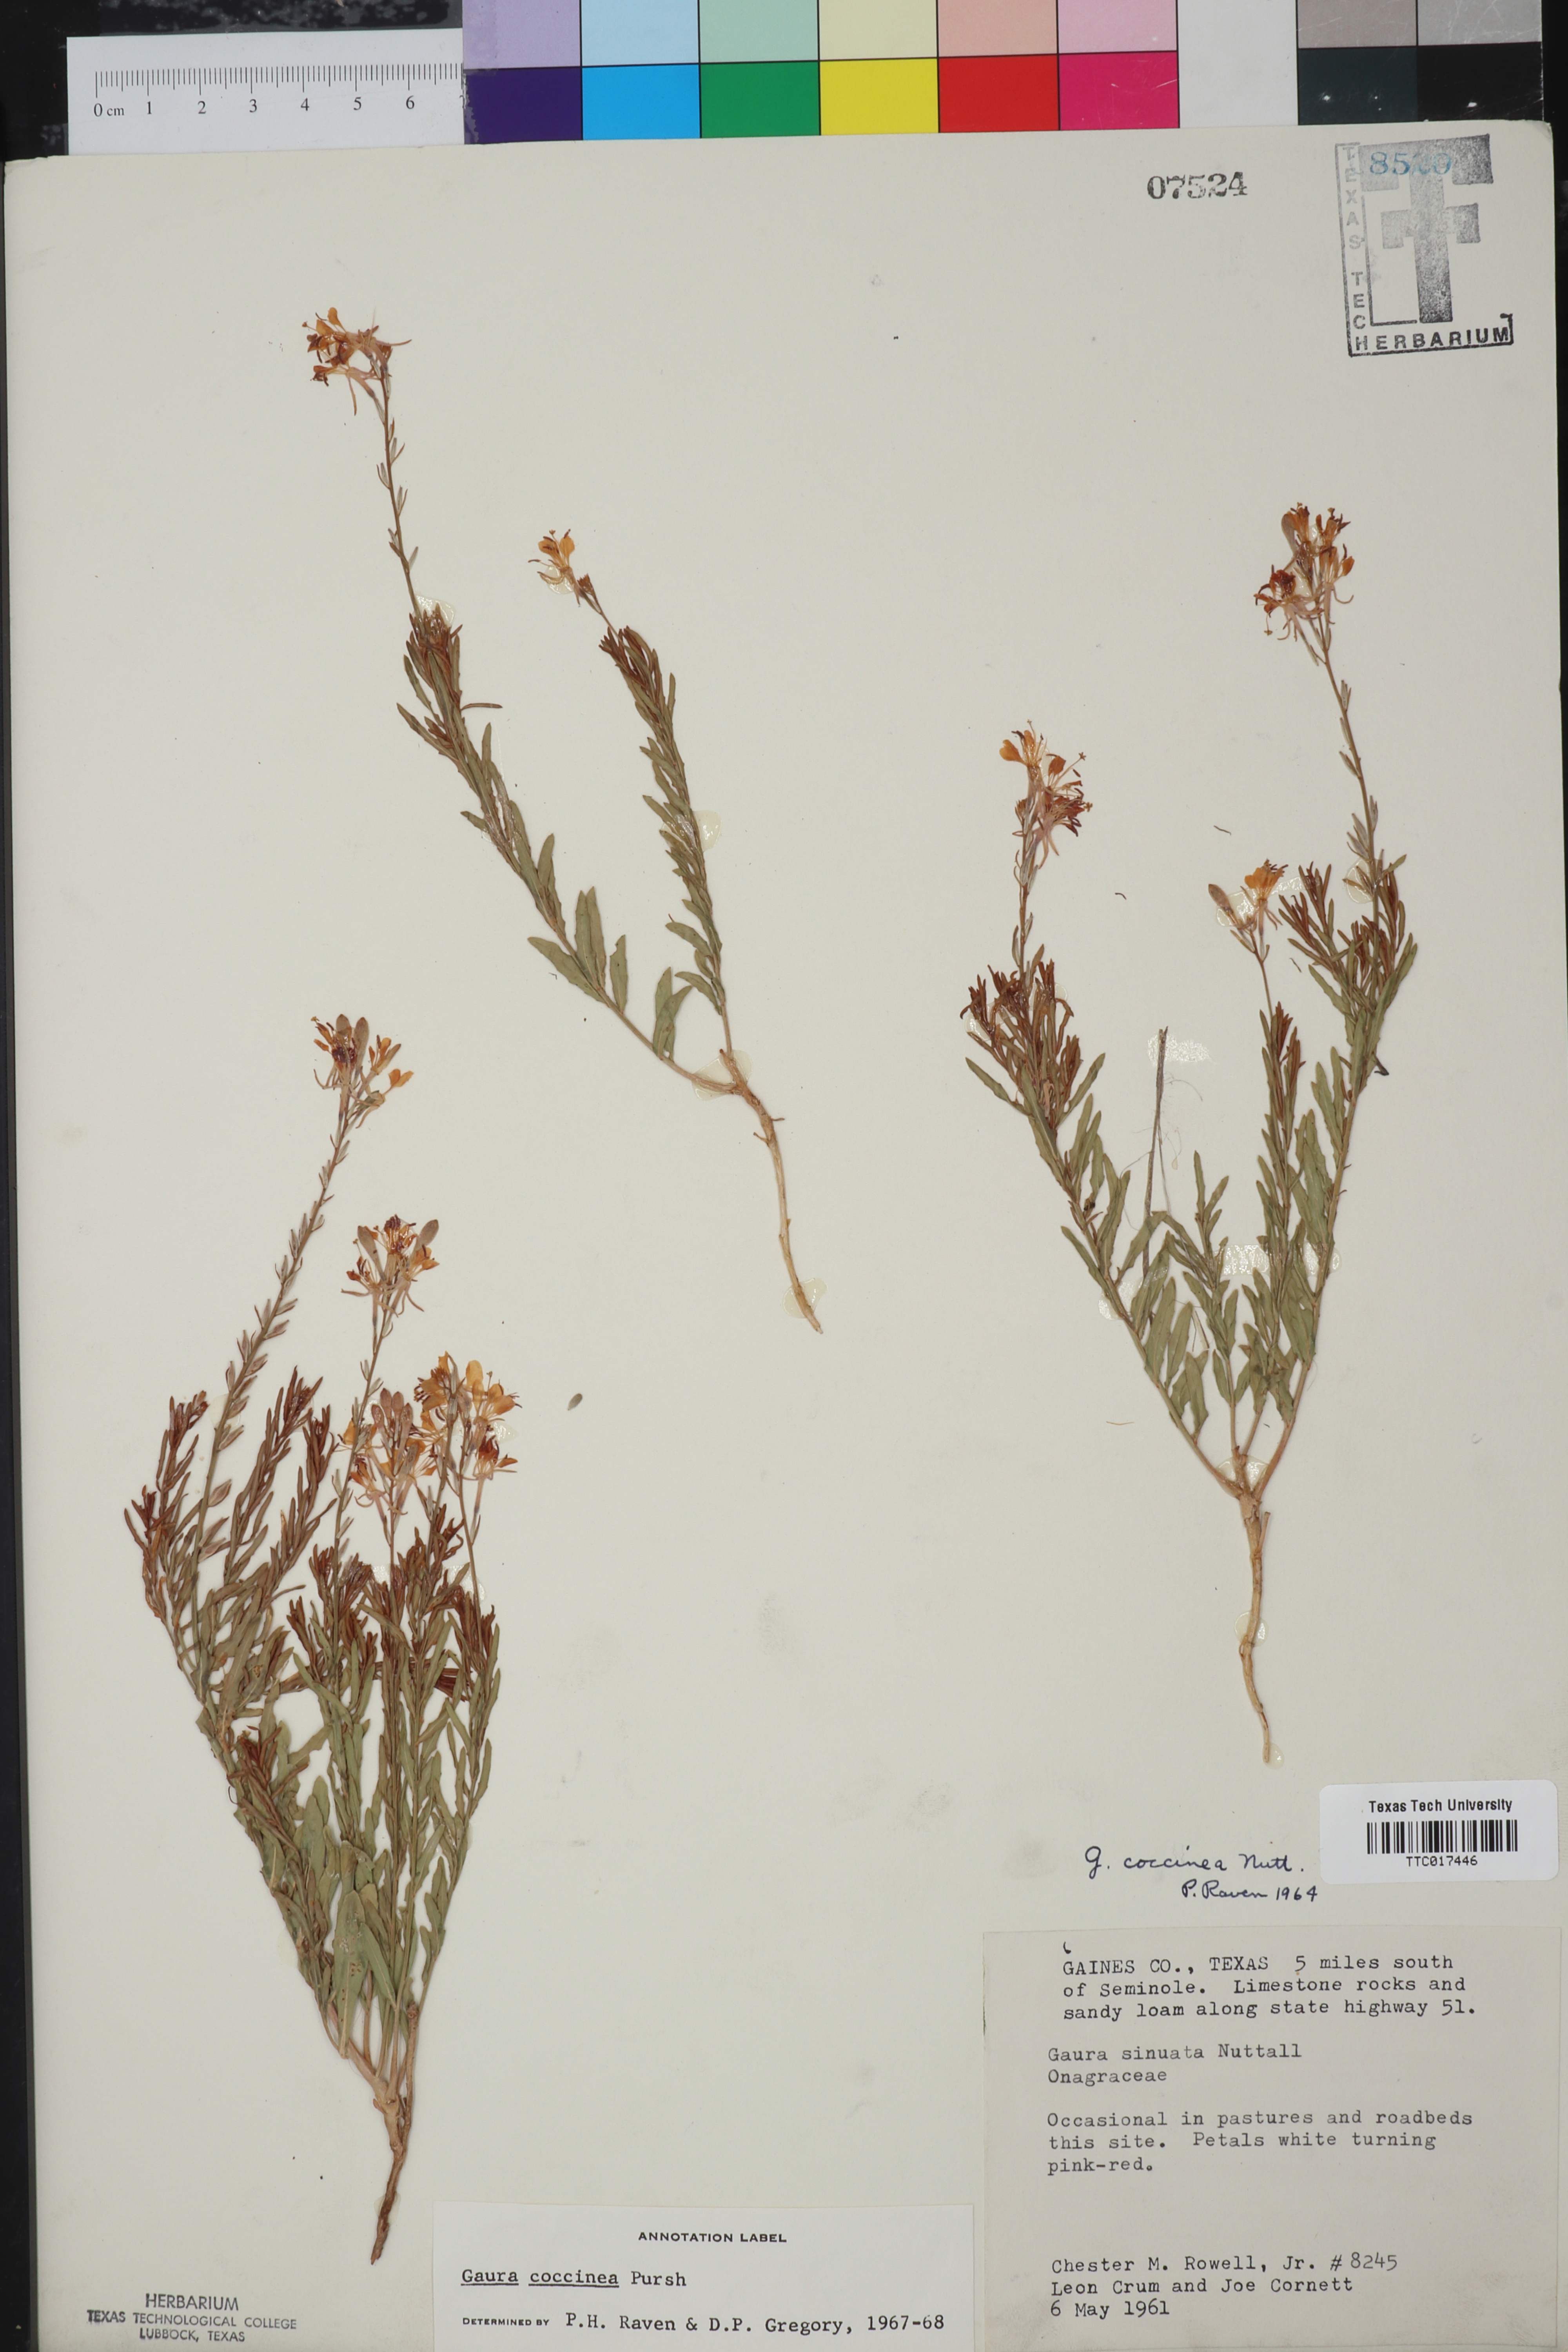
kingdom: Plantae
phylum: Tracheophyta
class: Magnoliopsida
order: Myrtales
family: Onagraceae
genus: Oenothera
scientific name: Oenothera suffrutescens
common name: Scarlet beeblossom
